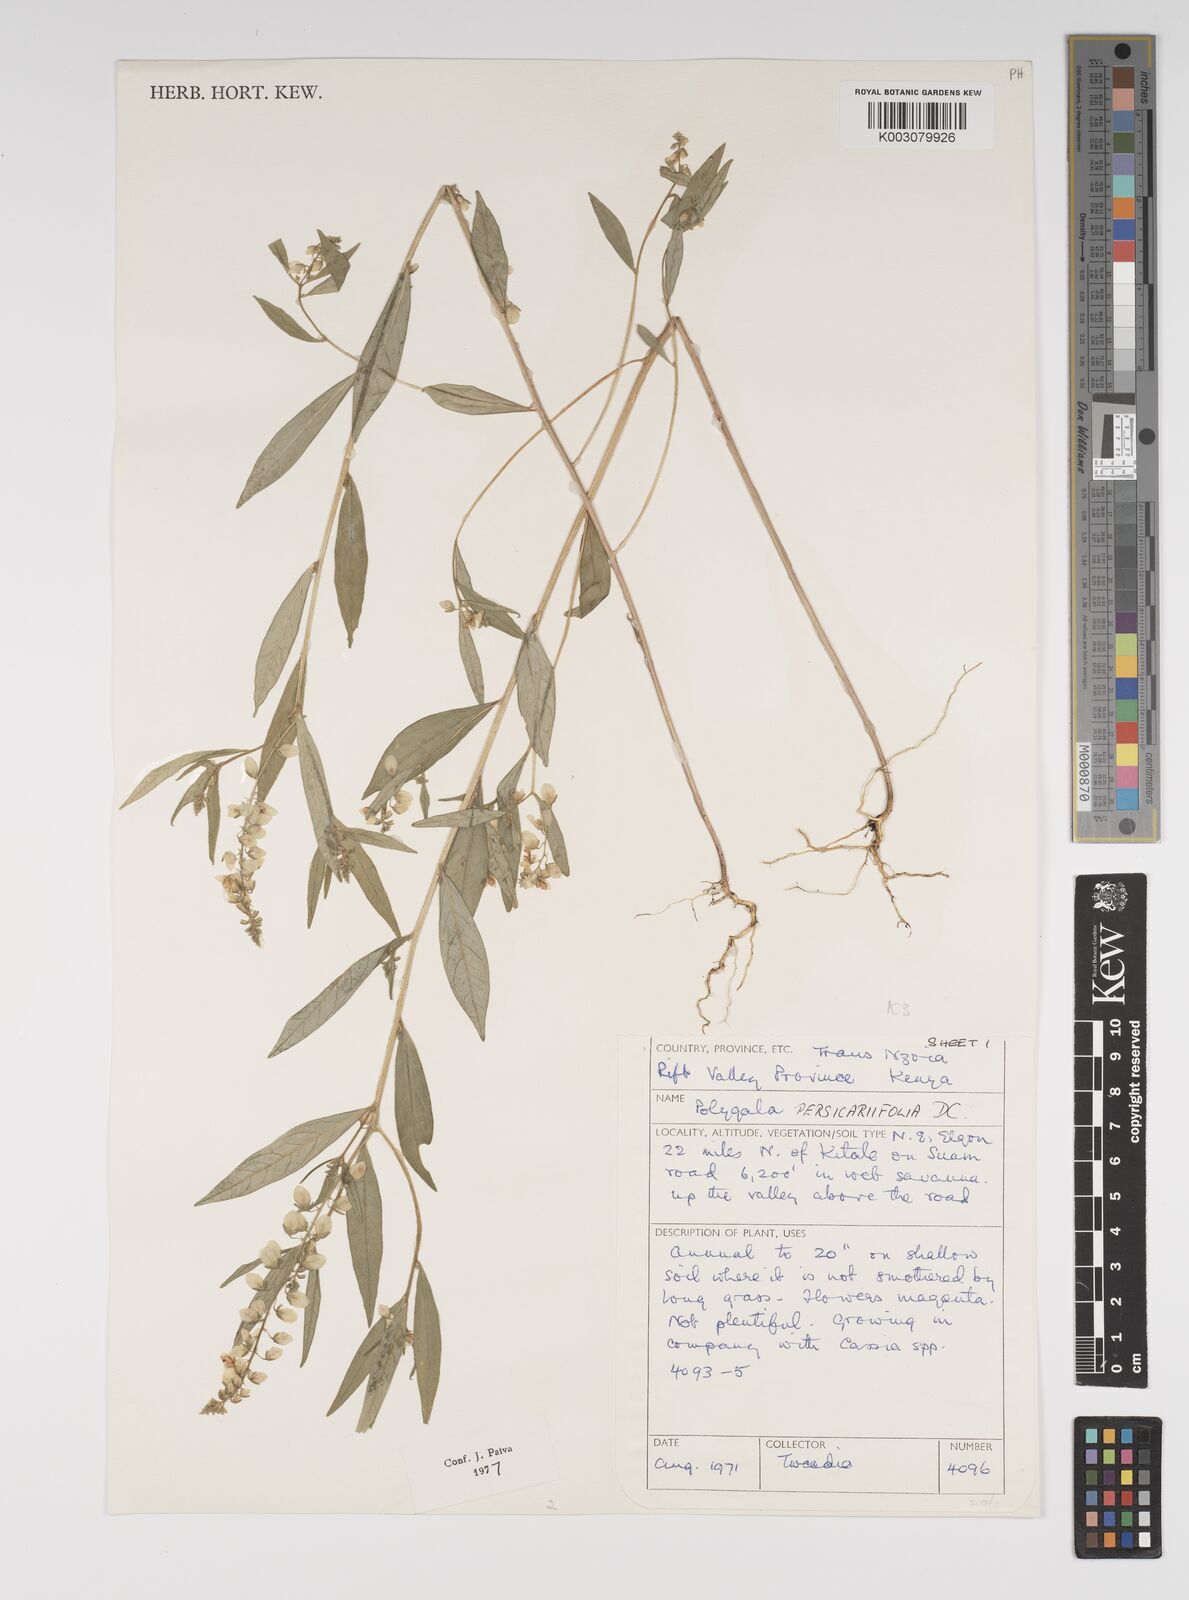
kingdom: Plantae
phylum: Tracheophyta
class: Magnoliopsida
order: Fabales
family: Polygalaceae
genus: Polygala
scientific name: Polygala persicariifolia
